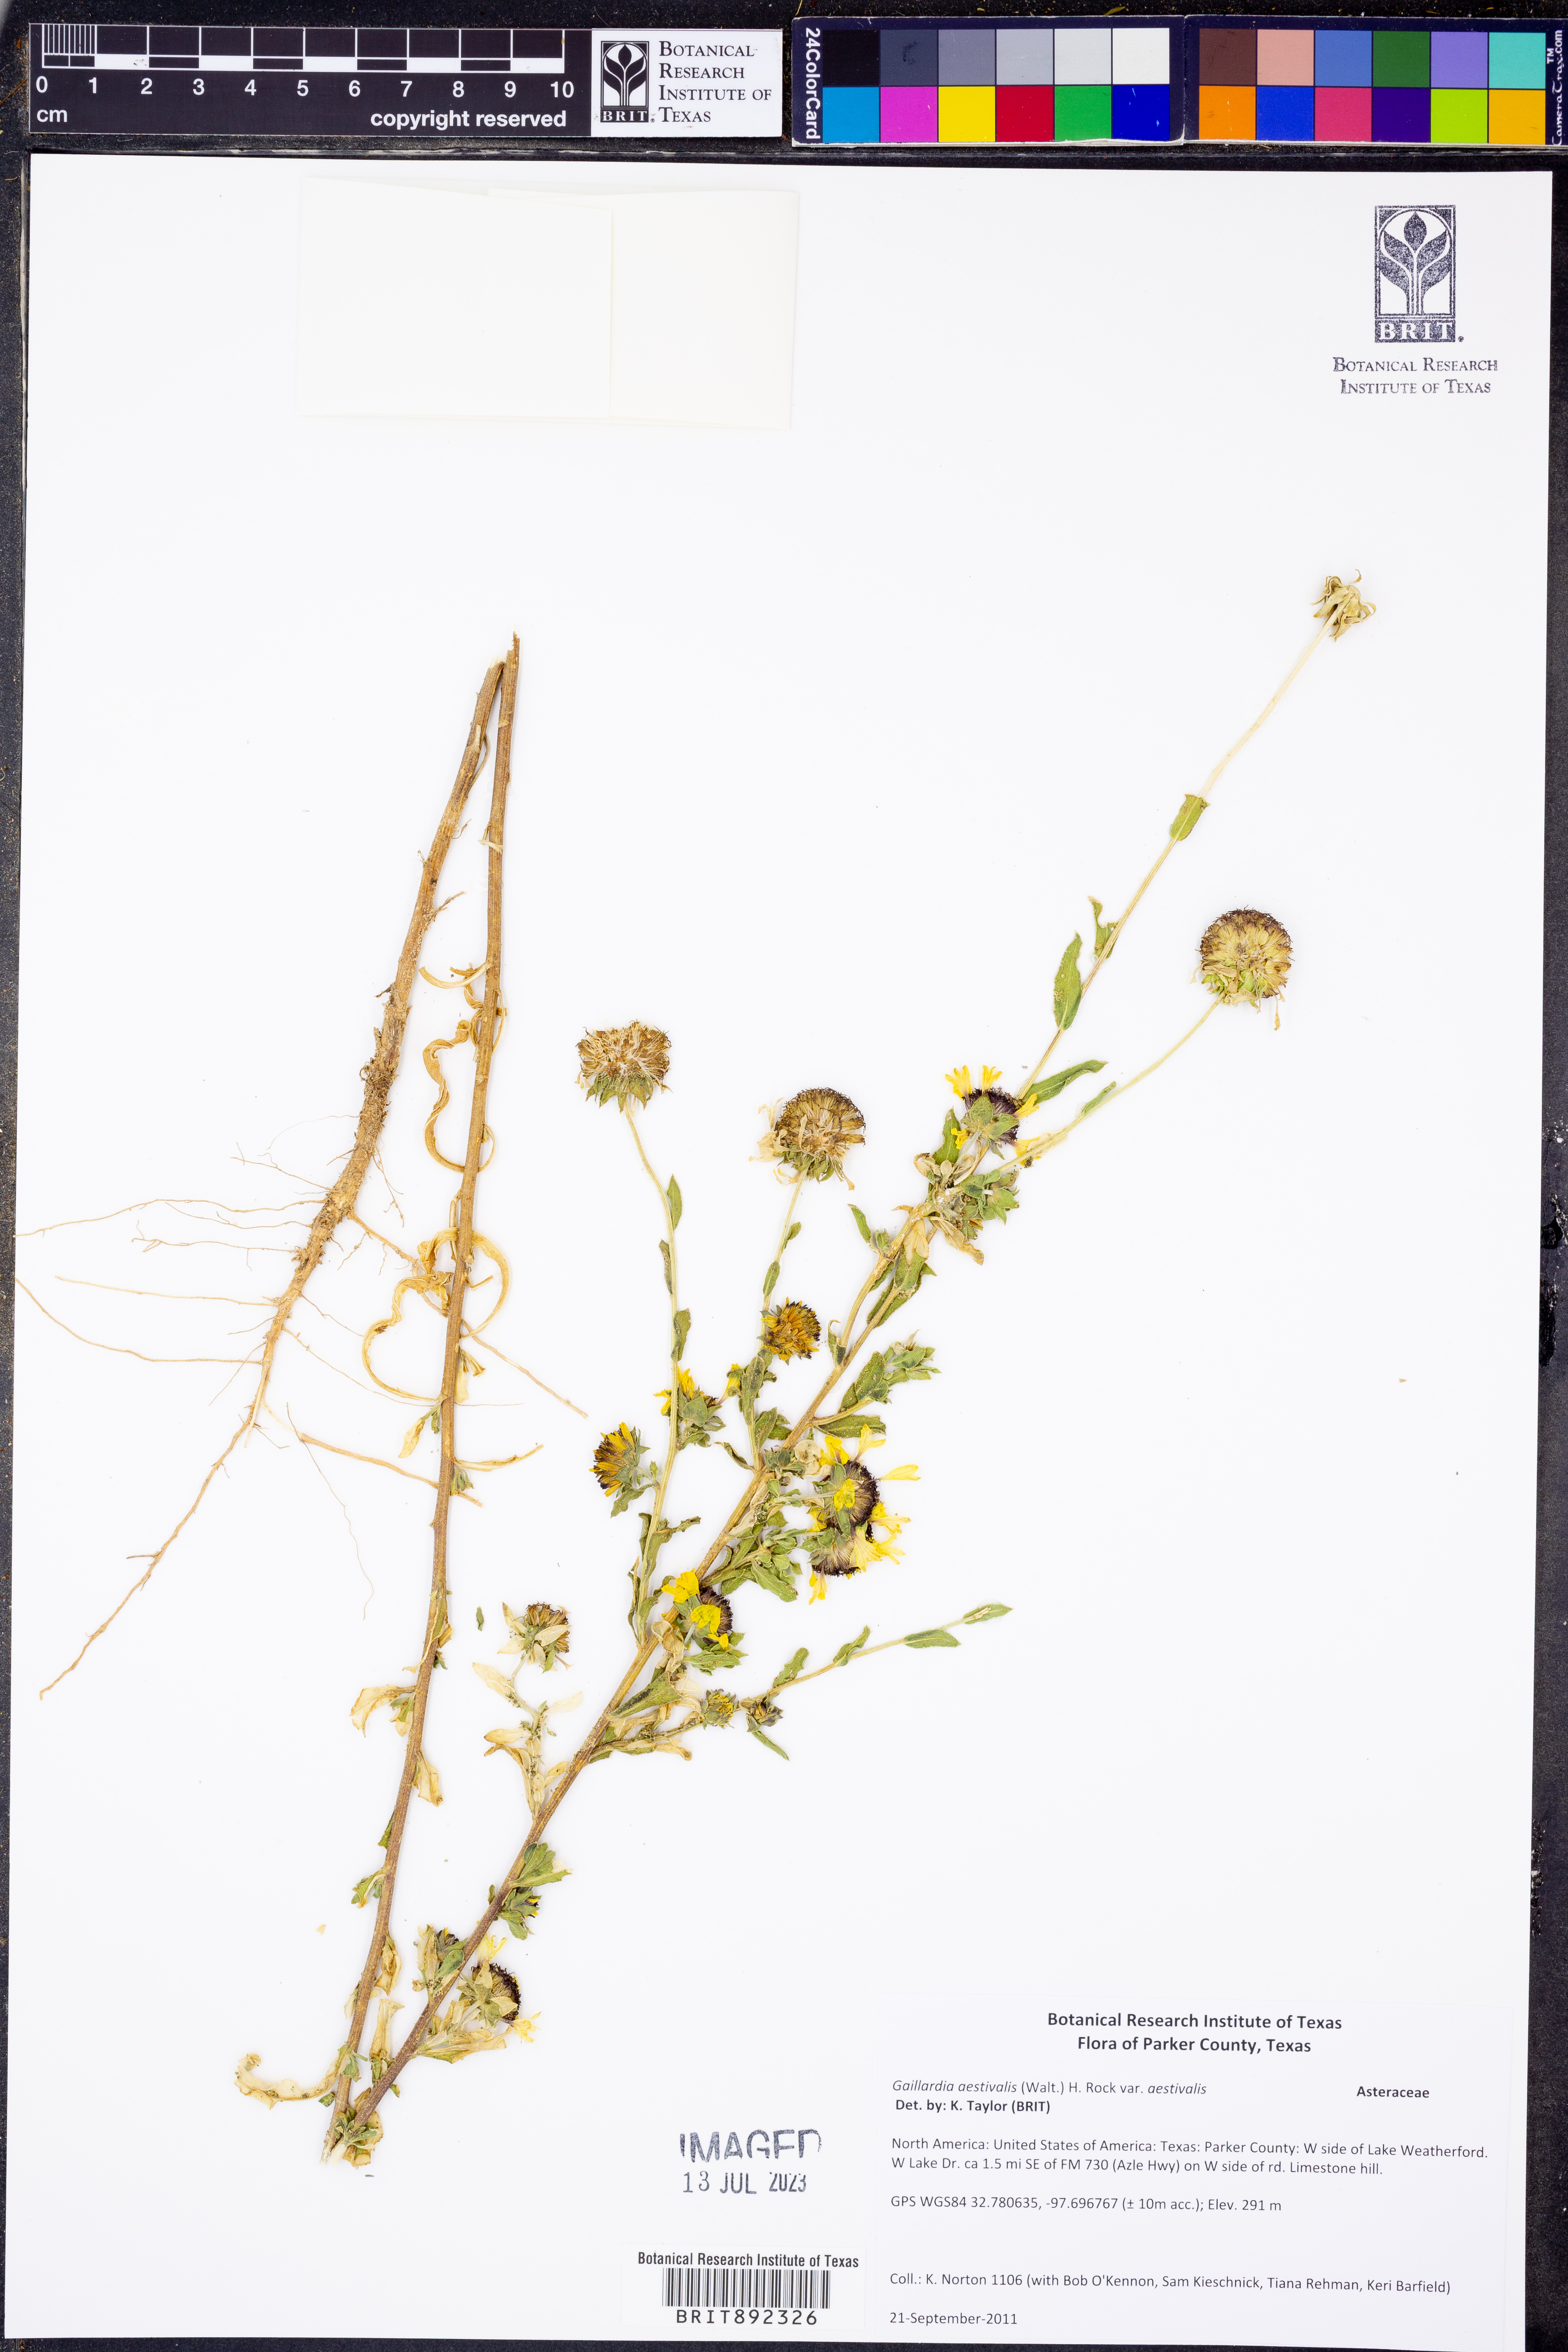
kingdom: Plantae
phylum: Tracheophyta
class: Magnoliopsida
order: Asterales
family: Asteraceae
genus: Gaillardia
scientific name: Gaillardia aestivalis
